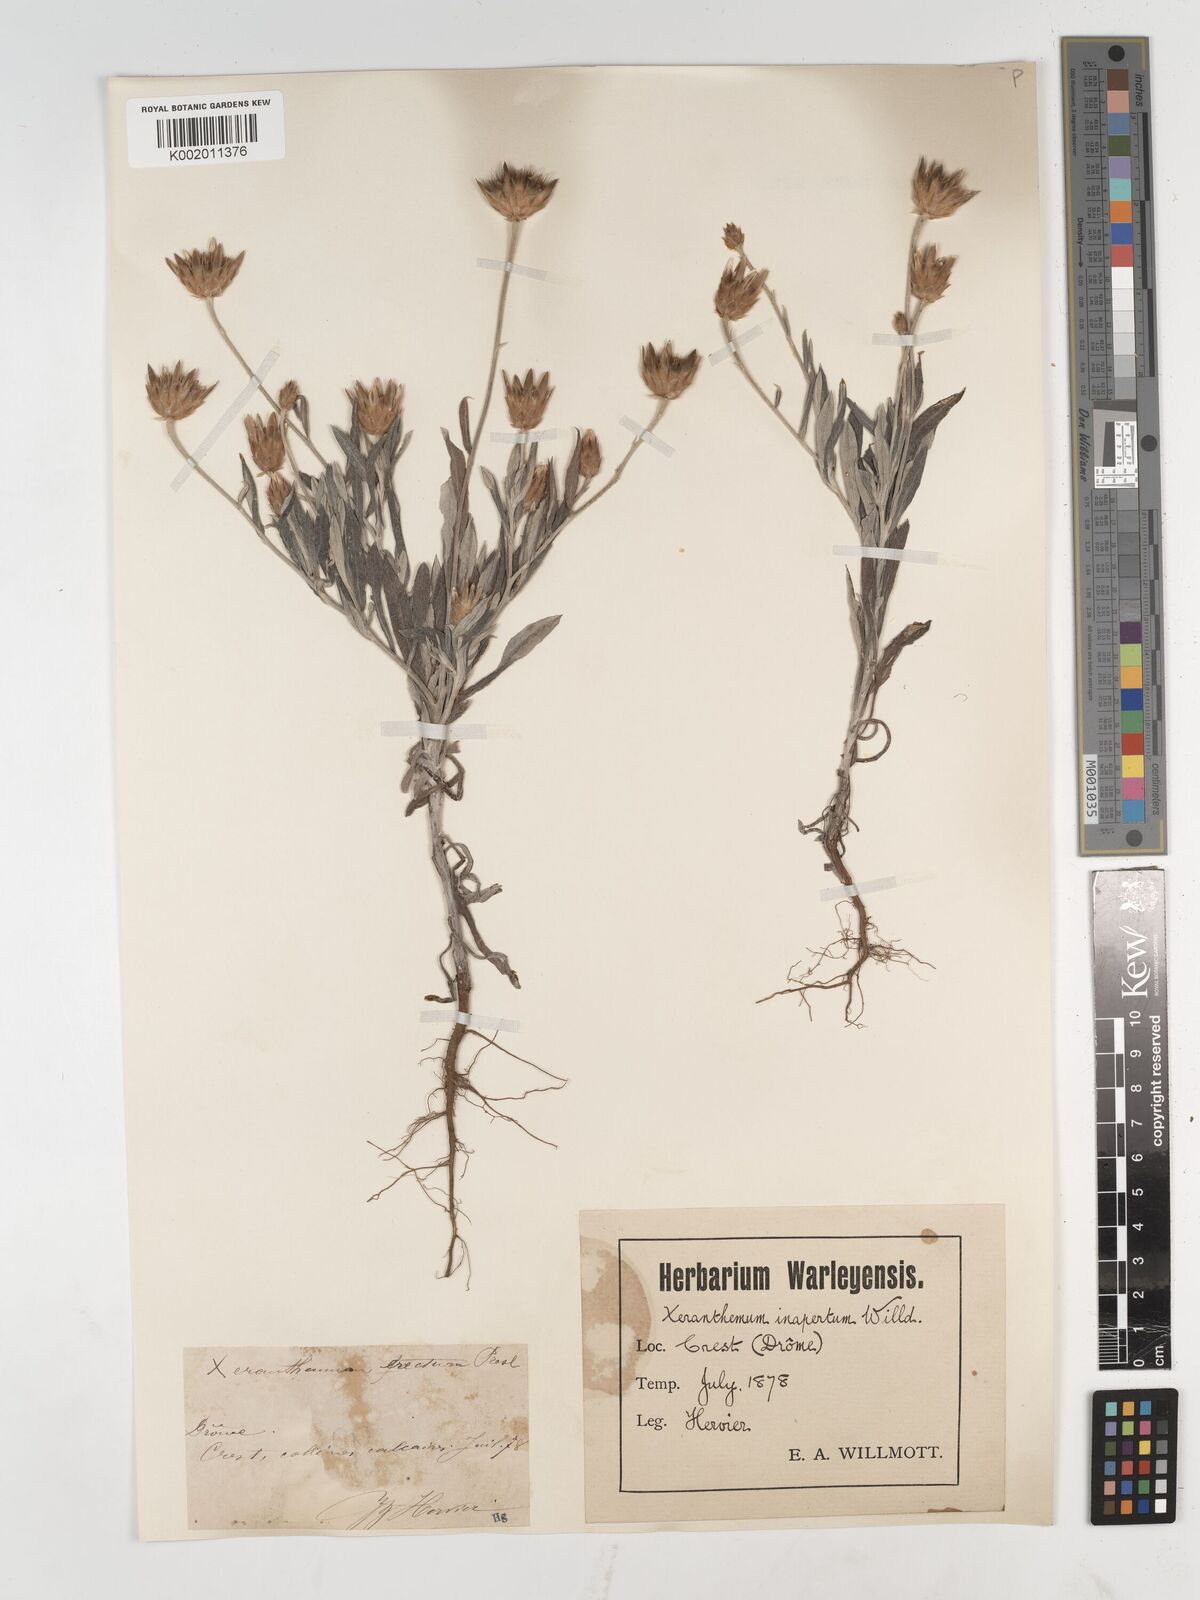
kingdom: Plantae
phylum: Tracheophyta
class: Magnoliopsida
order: Asterales
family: Asteraceae
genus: Xeranthemum
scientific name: Xeranthemum inapertum
